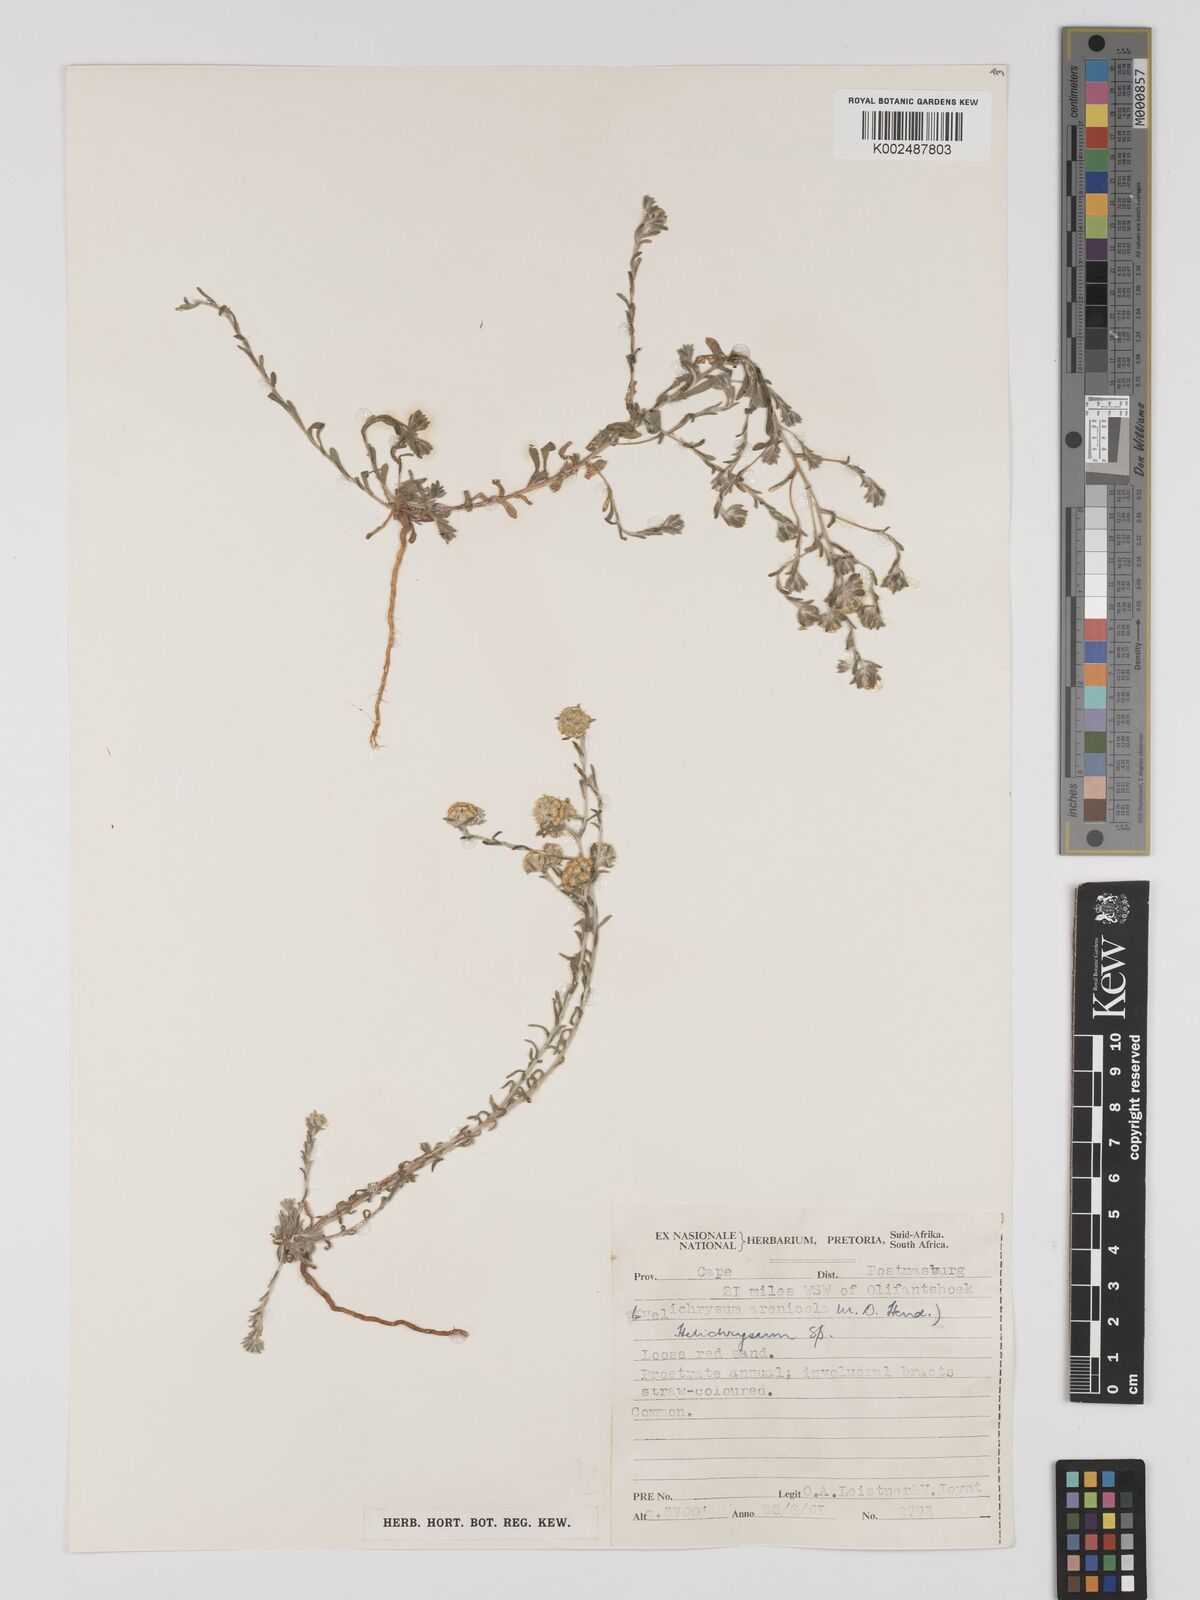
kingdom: Plantae
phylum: Tracheophyta
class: Magnoliopsida
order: Asterales
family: Asteraceae
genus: Helichrysum
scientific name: Helichrysum arenicola
